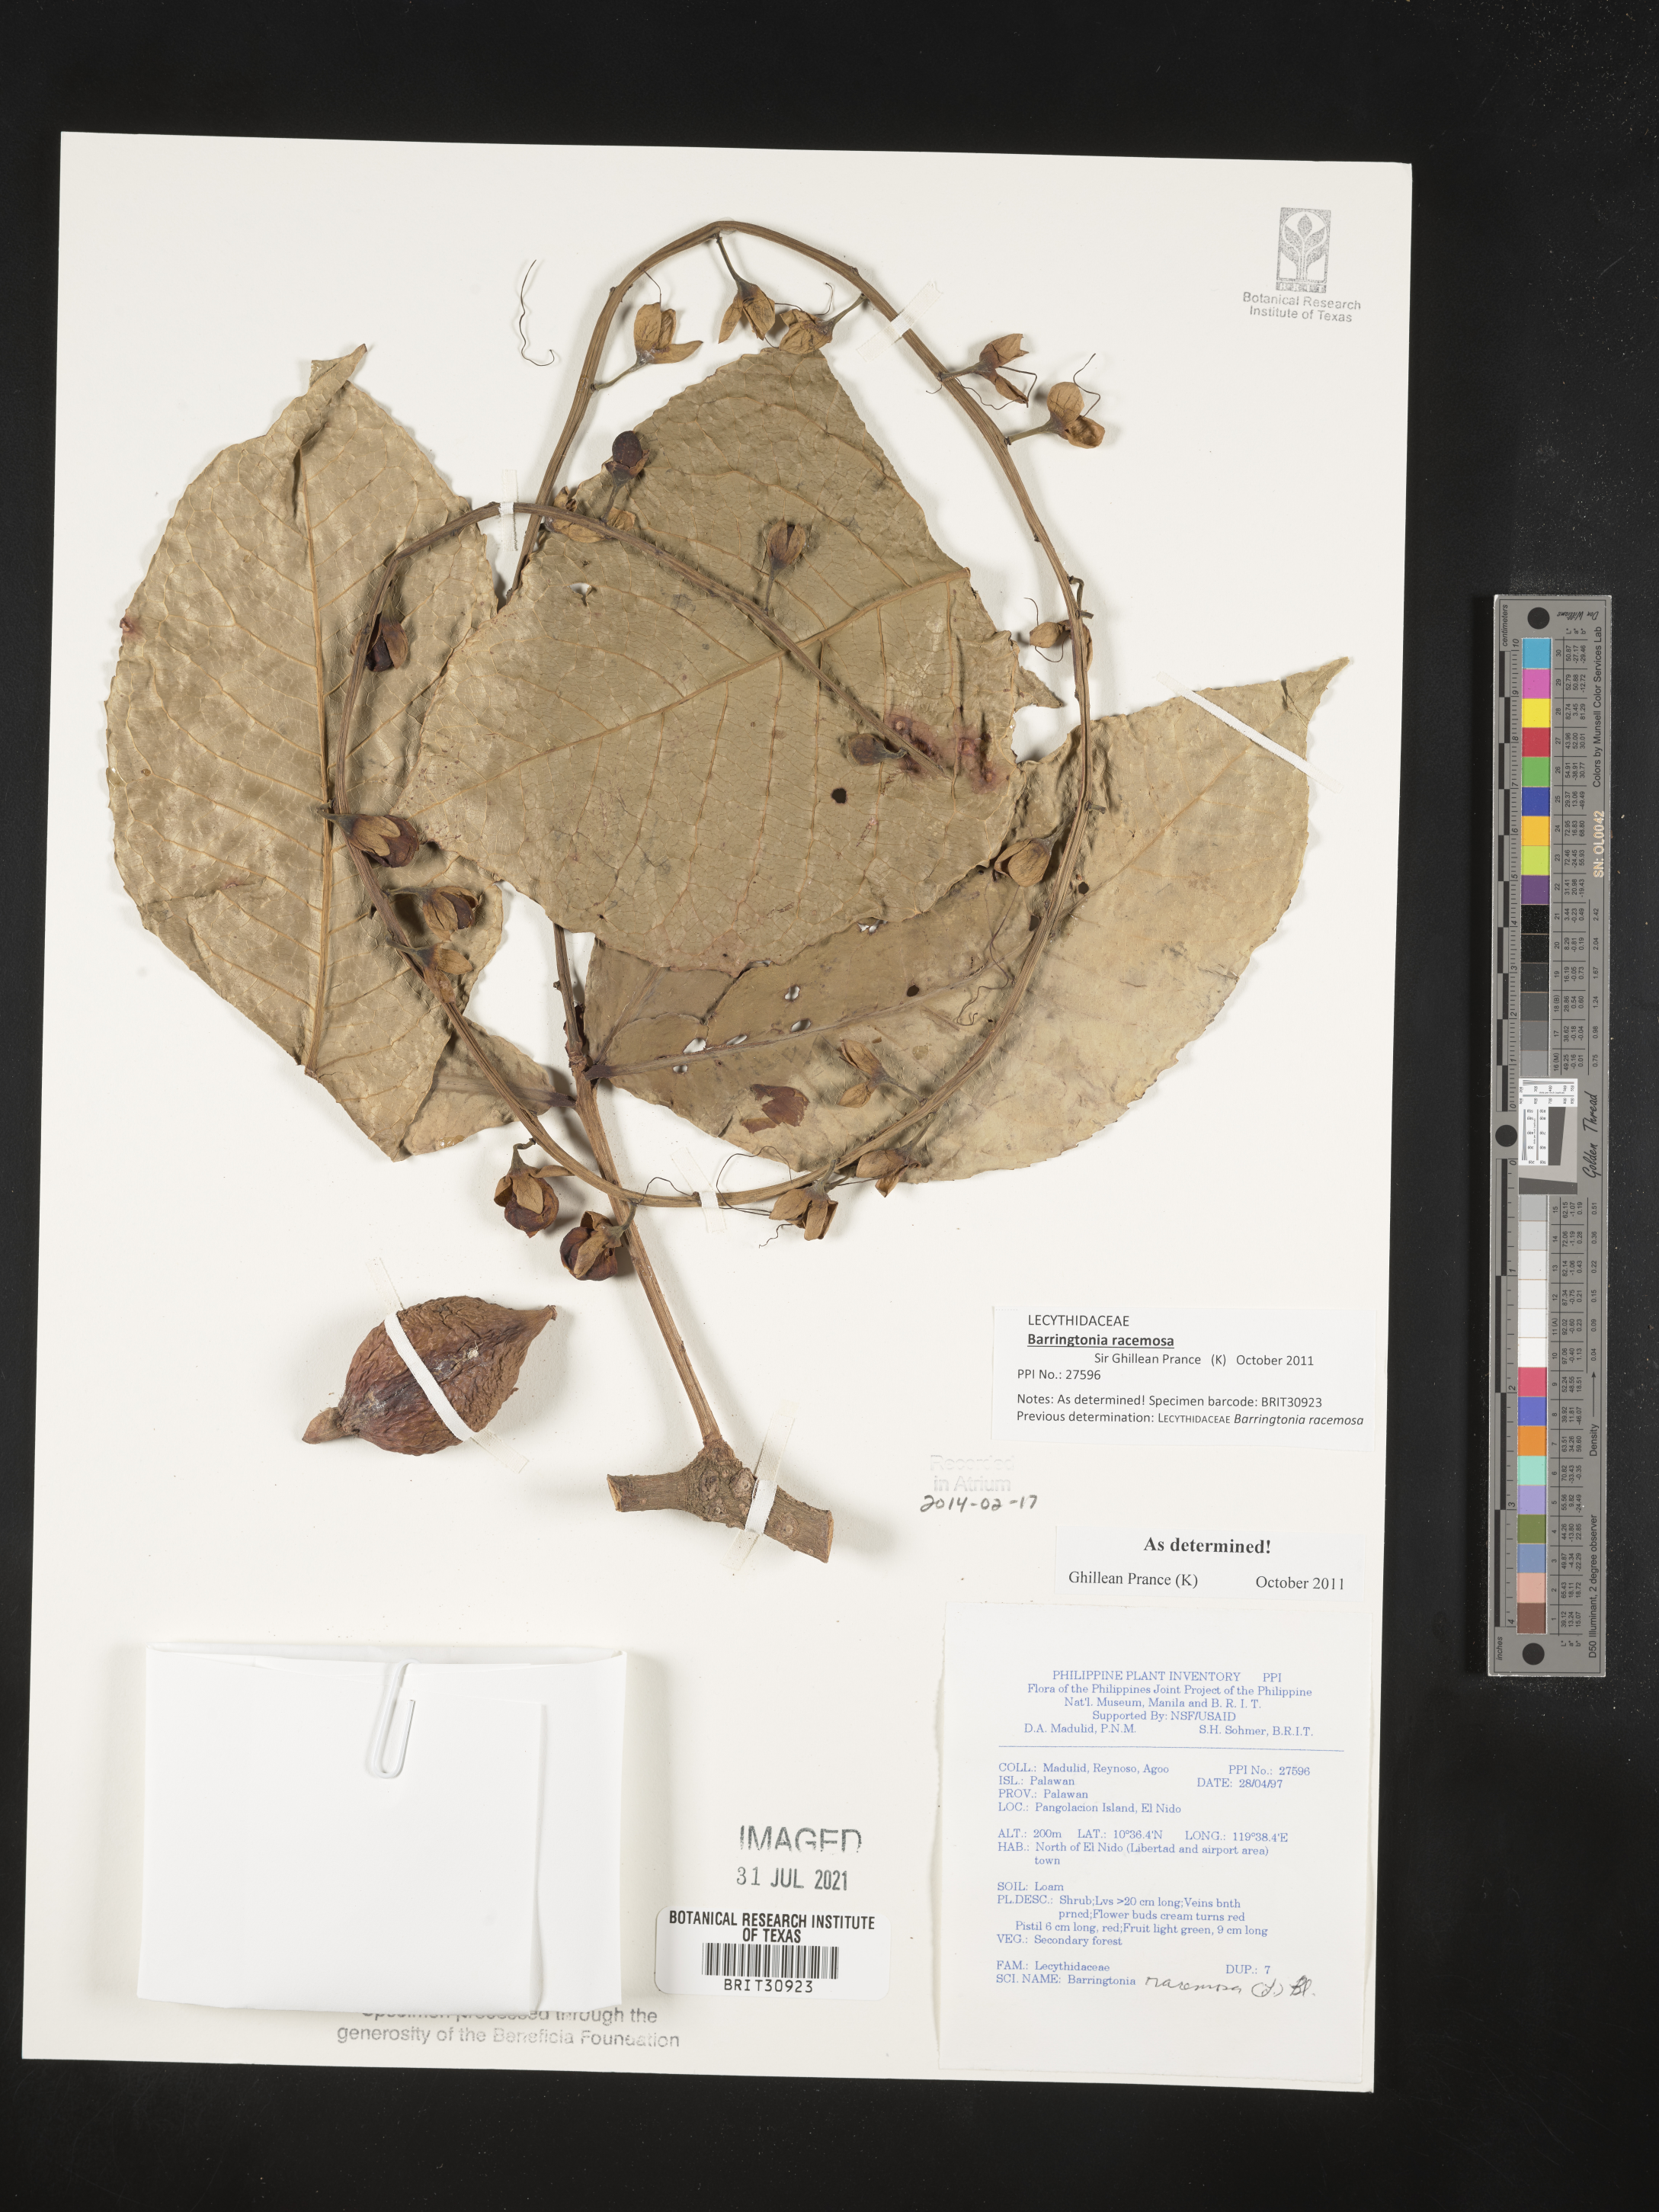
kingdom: Plantae
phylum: Tracheophyta
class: Magnoliopsida
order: Ericales
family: Lecythidaceae
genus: Barringtonia
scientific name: Barringtonia racemosa
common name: Brackwater mangrove
